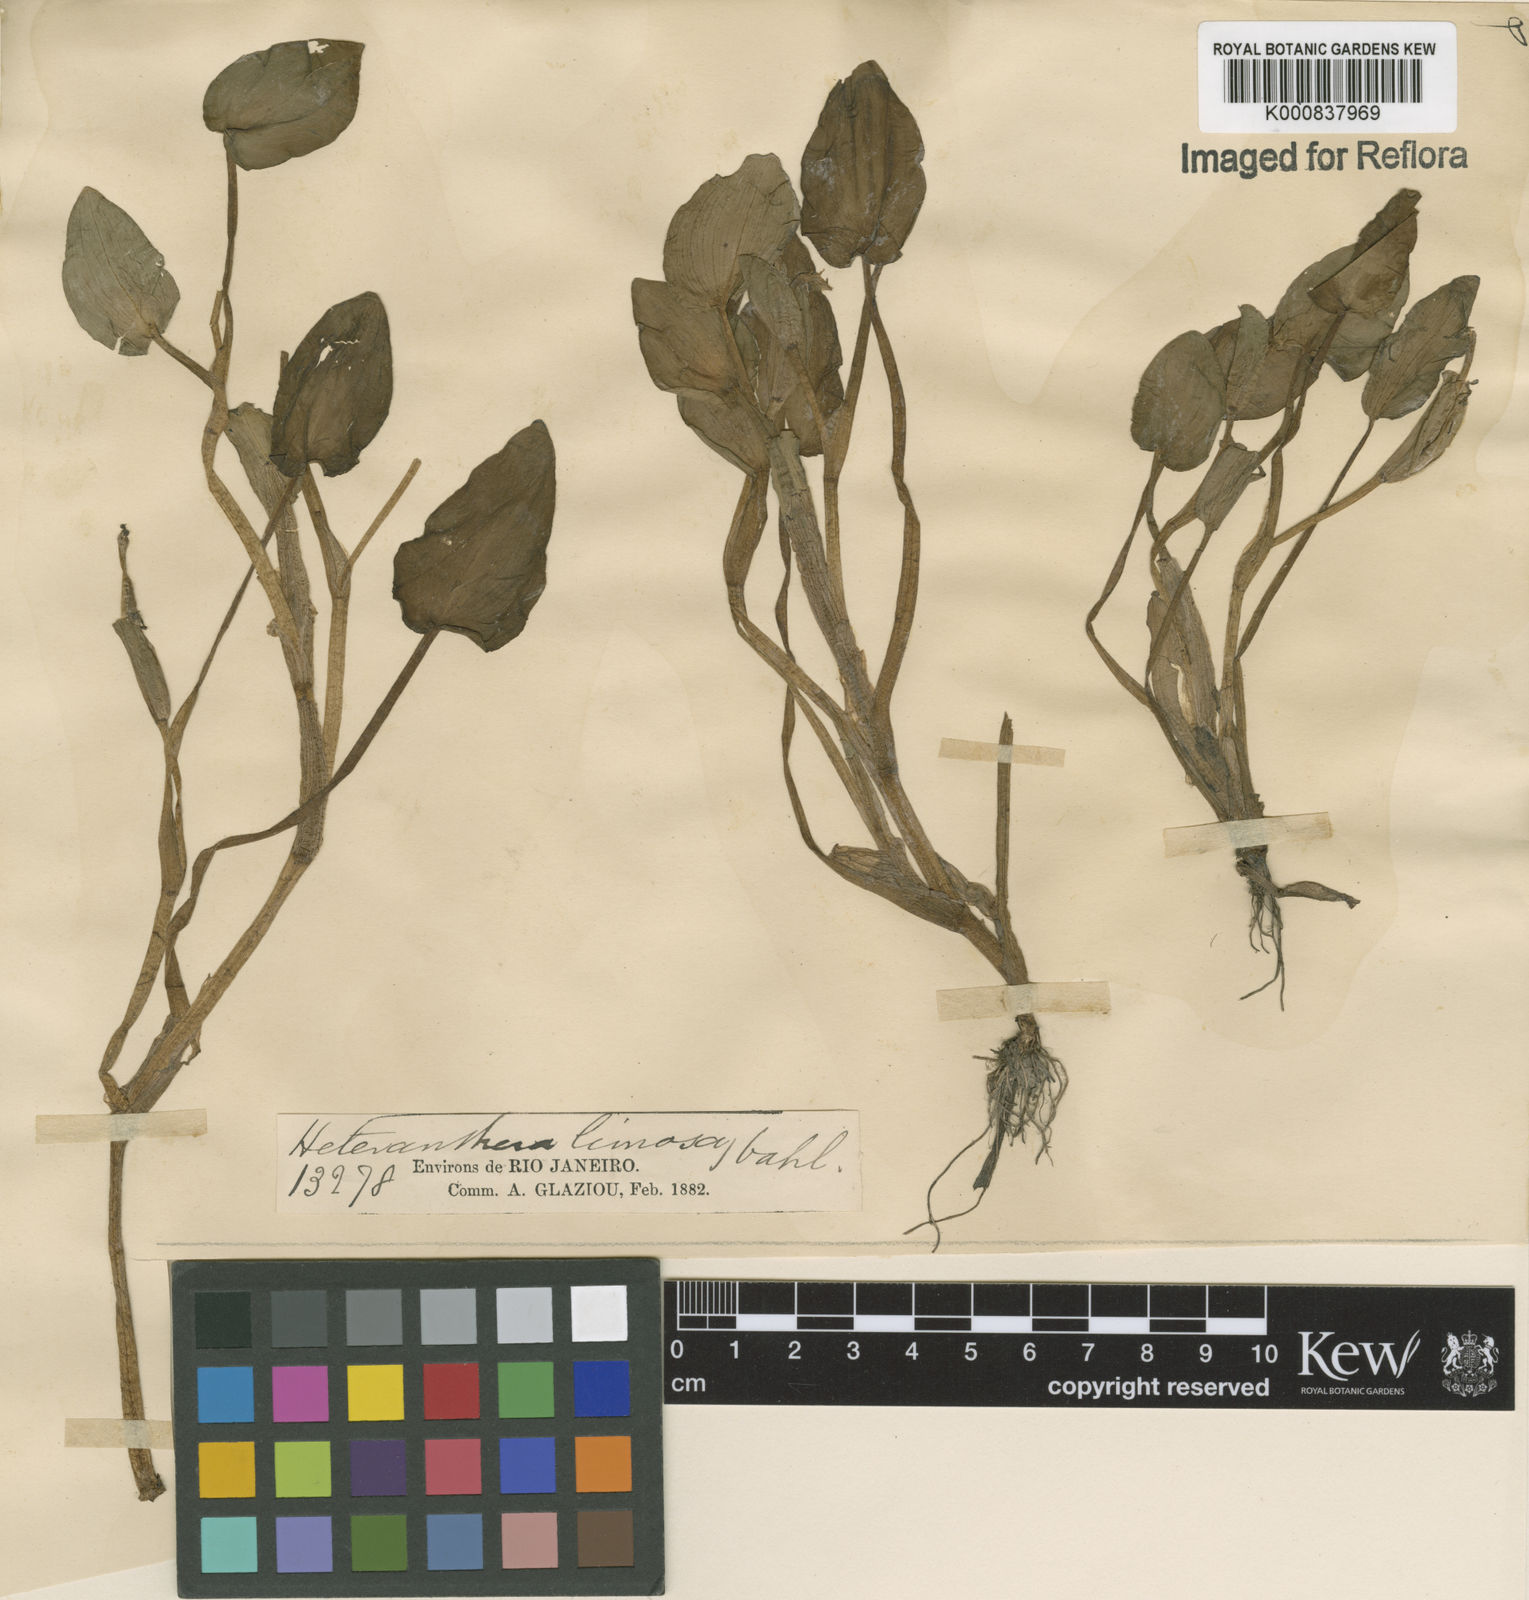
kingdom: Plantae
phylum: Tracheophyta
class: Liliopsida
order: Commelinales
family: Pontederiaceae
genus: Heteranthera
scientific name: Heteranthera oblongifolia
